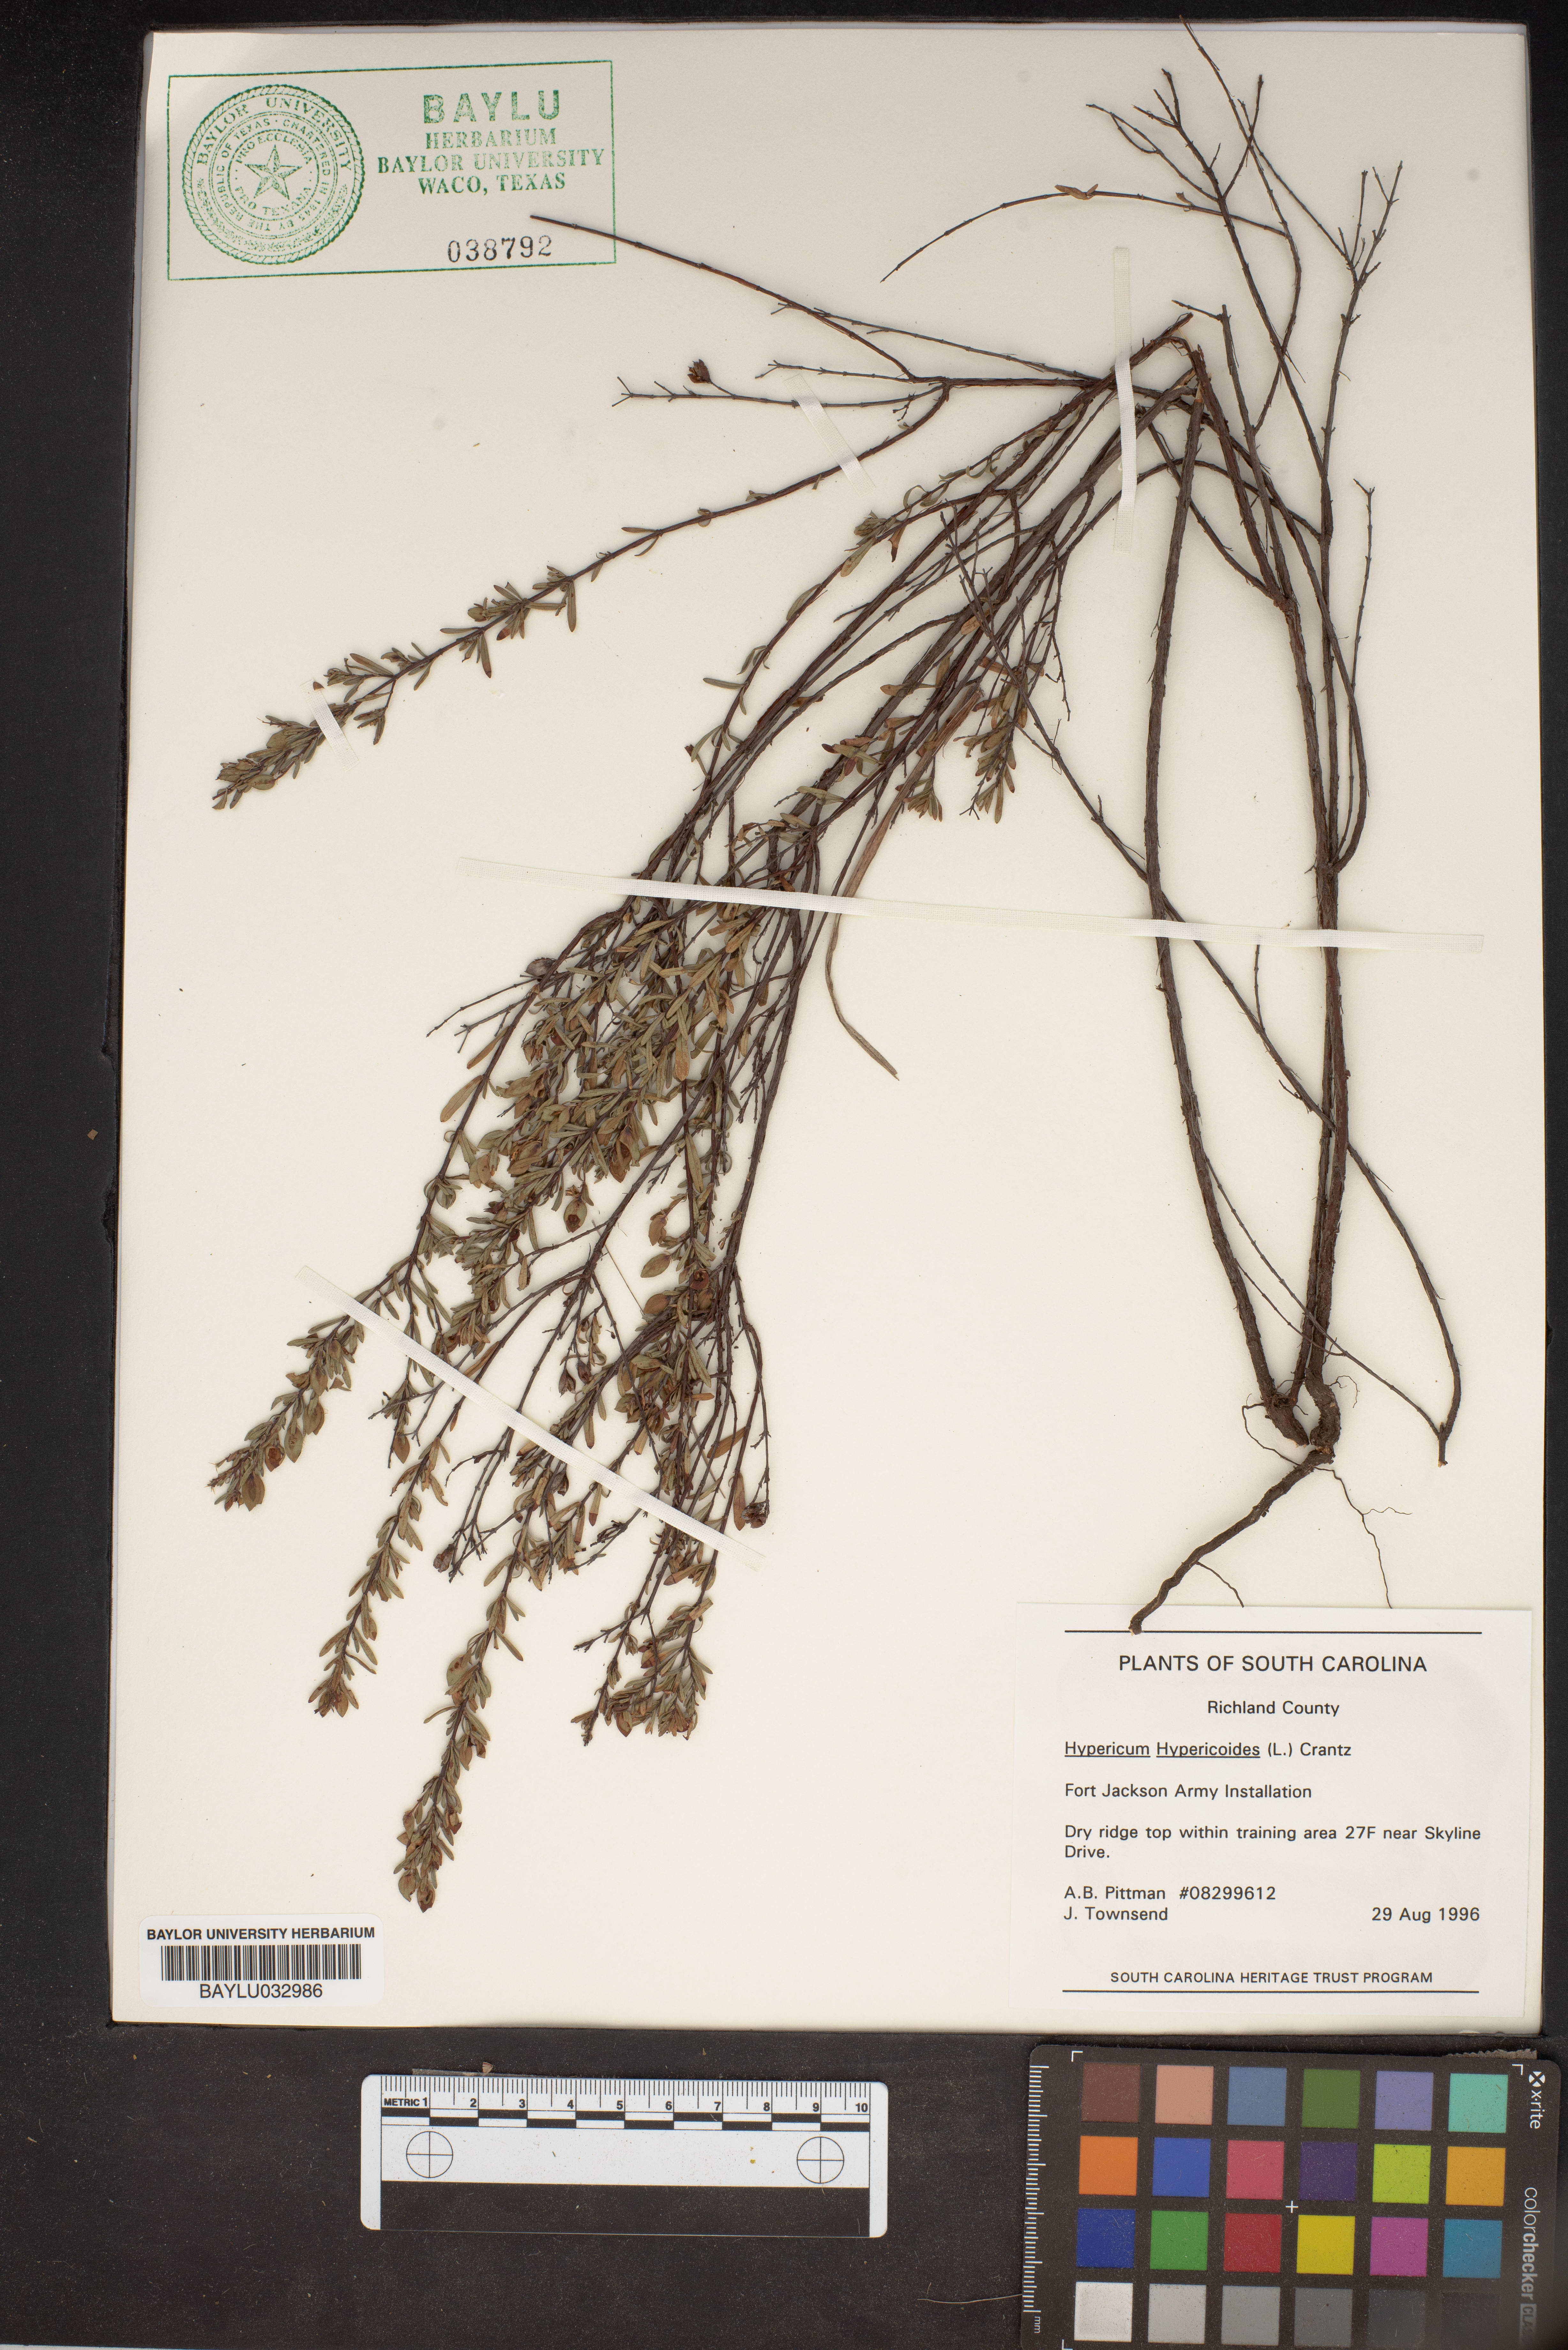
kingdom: Plantae
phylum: Tracheophyta
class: Magnoliopsida
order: Malpighiales
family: Hypericaceae
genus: Hypericum
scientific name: Hypericum hypericoides
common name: St. andrew's cross
